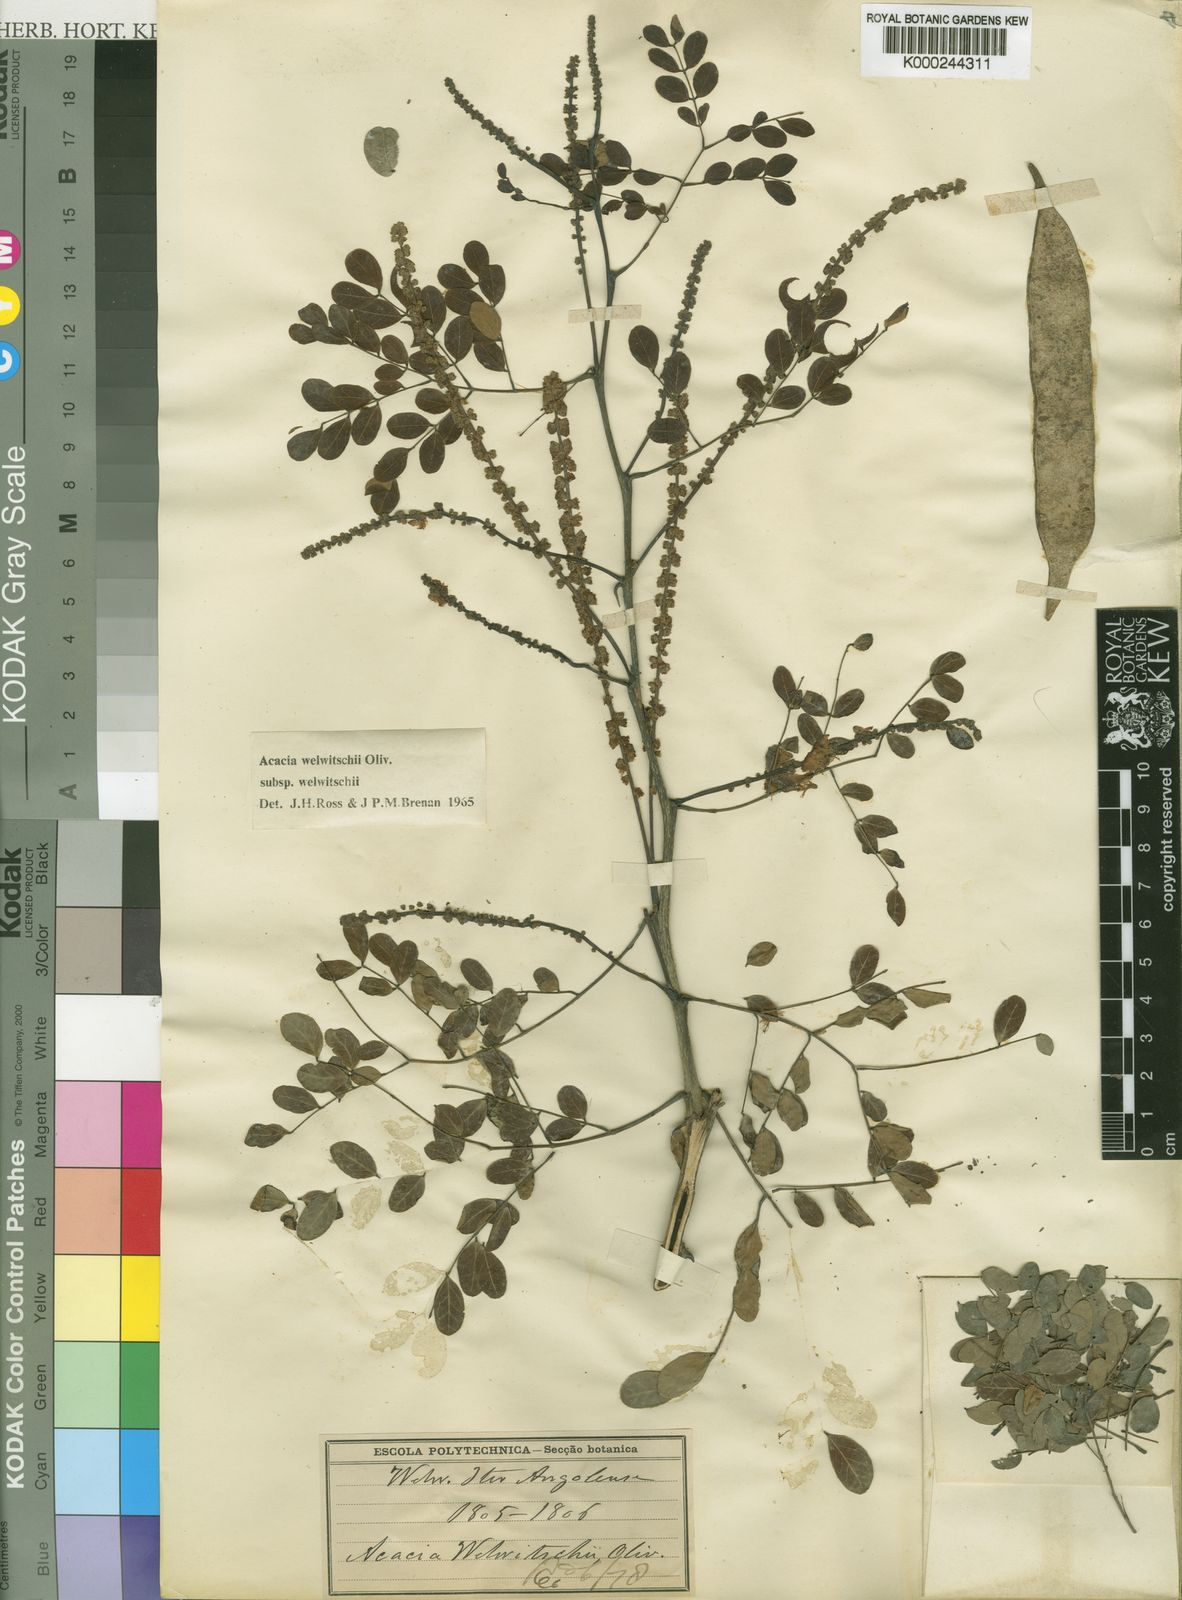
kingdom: Plantae
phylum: Tracheophyta
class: Magnoliopsida
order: Fabales
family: Fabaceae
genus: Senegalia
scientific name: Senegalia welwitschii
